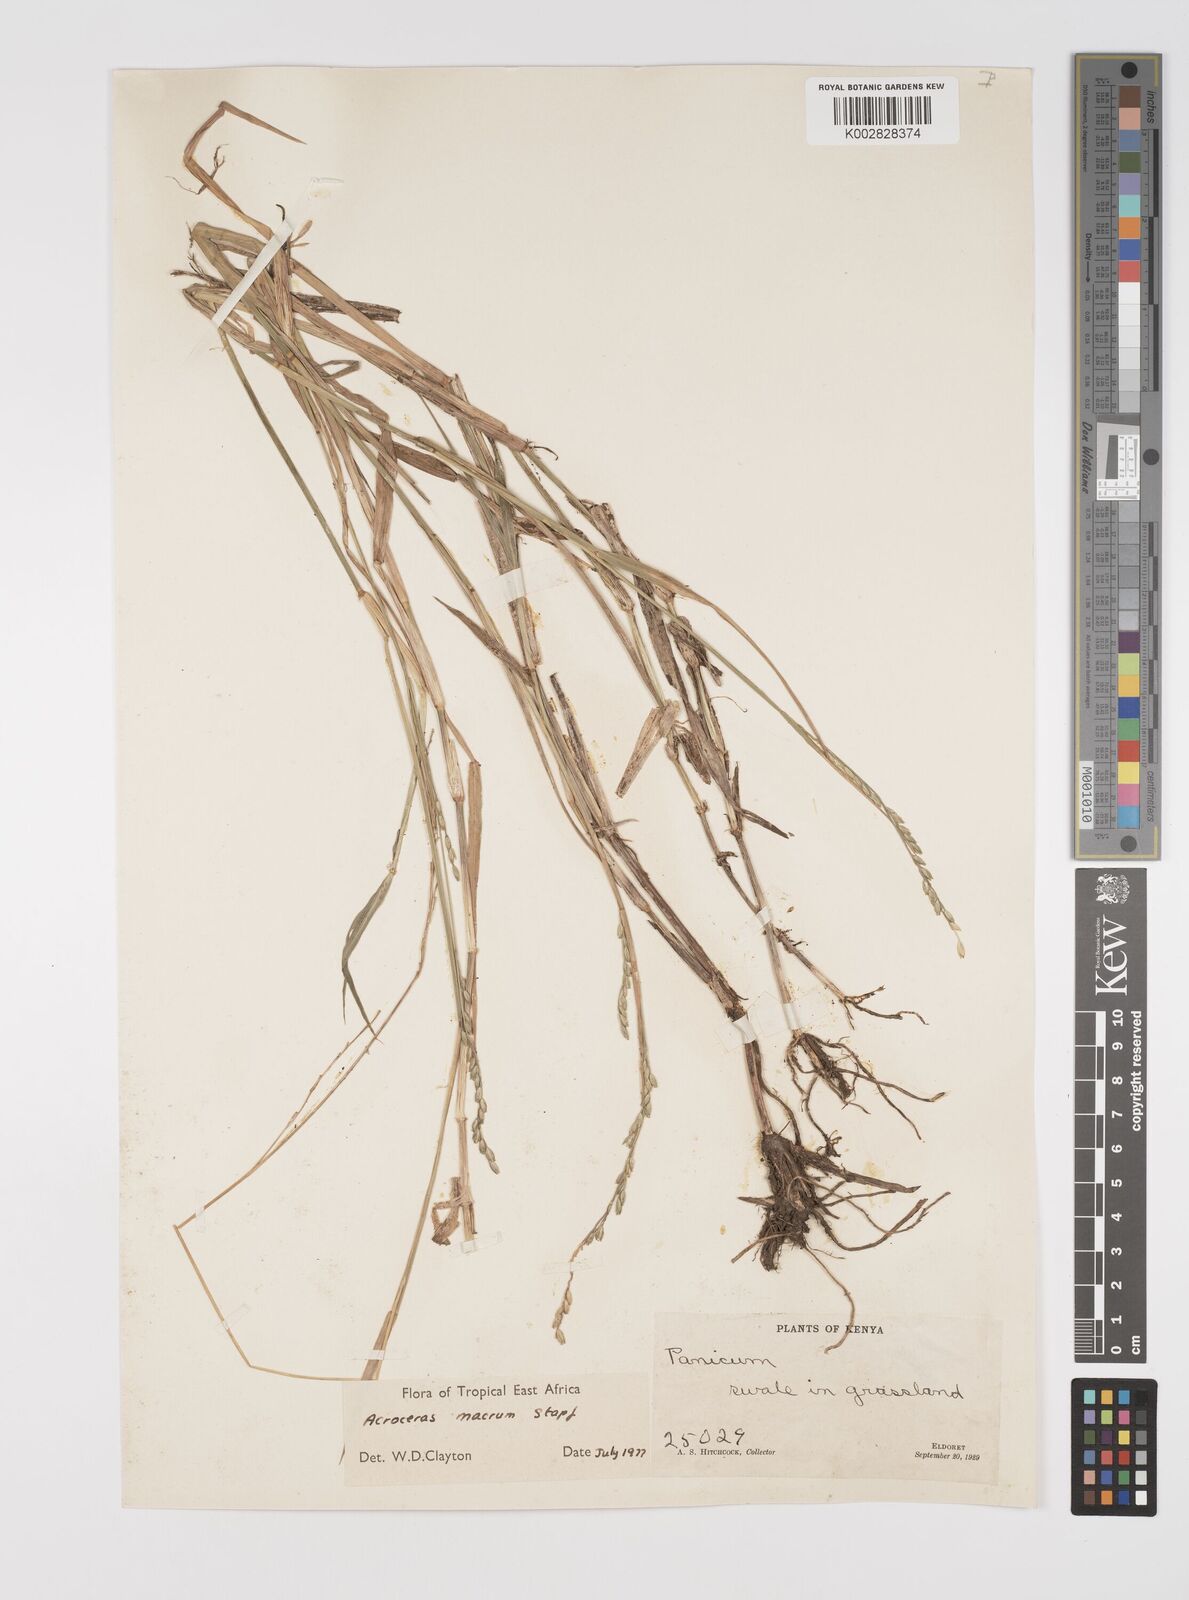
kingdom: Plantae
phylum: Tracheophyta
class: Liliopsida
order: Poales
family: Poaceae
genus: Acroceras
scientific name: Acroceras macrum
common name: Nyl grass
